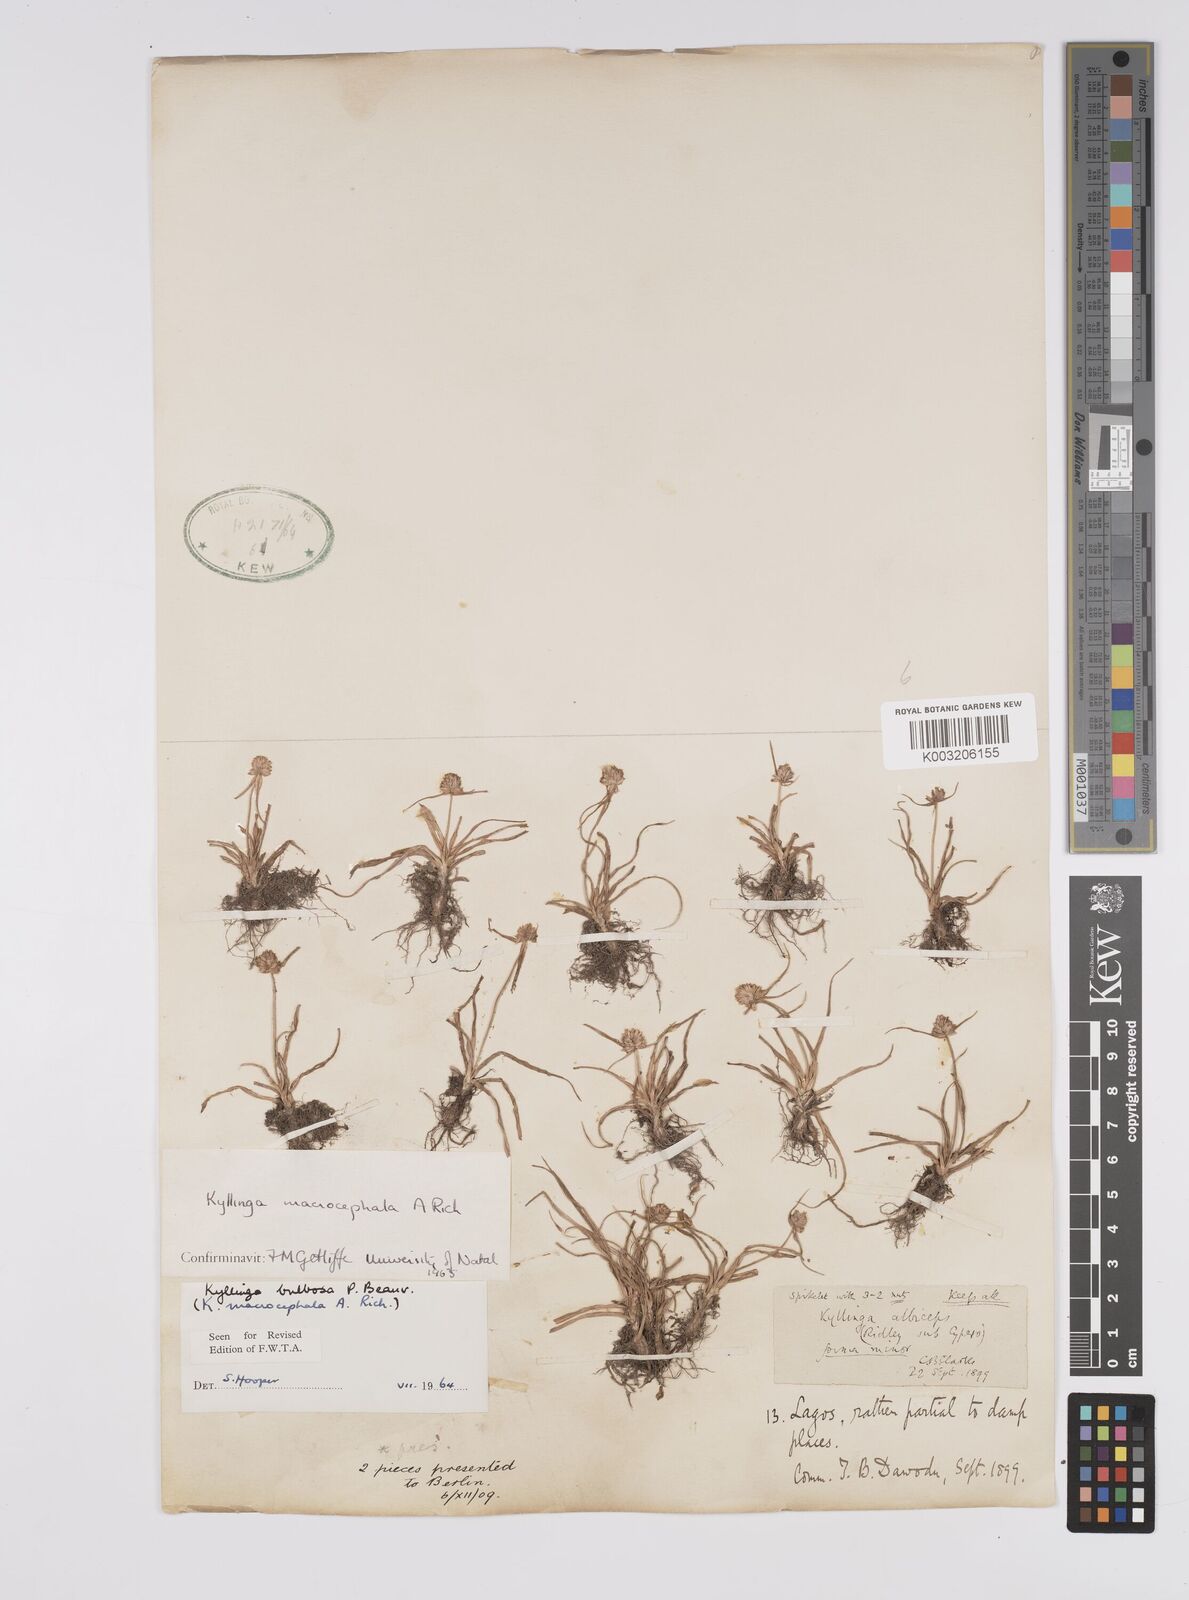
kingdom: Plantae
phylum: Tracheophyta
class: Liliopsida
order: Poales
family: Cyperaceae
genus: Cyperus
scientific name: Cyperus
